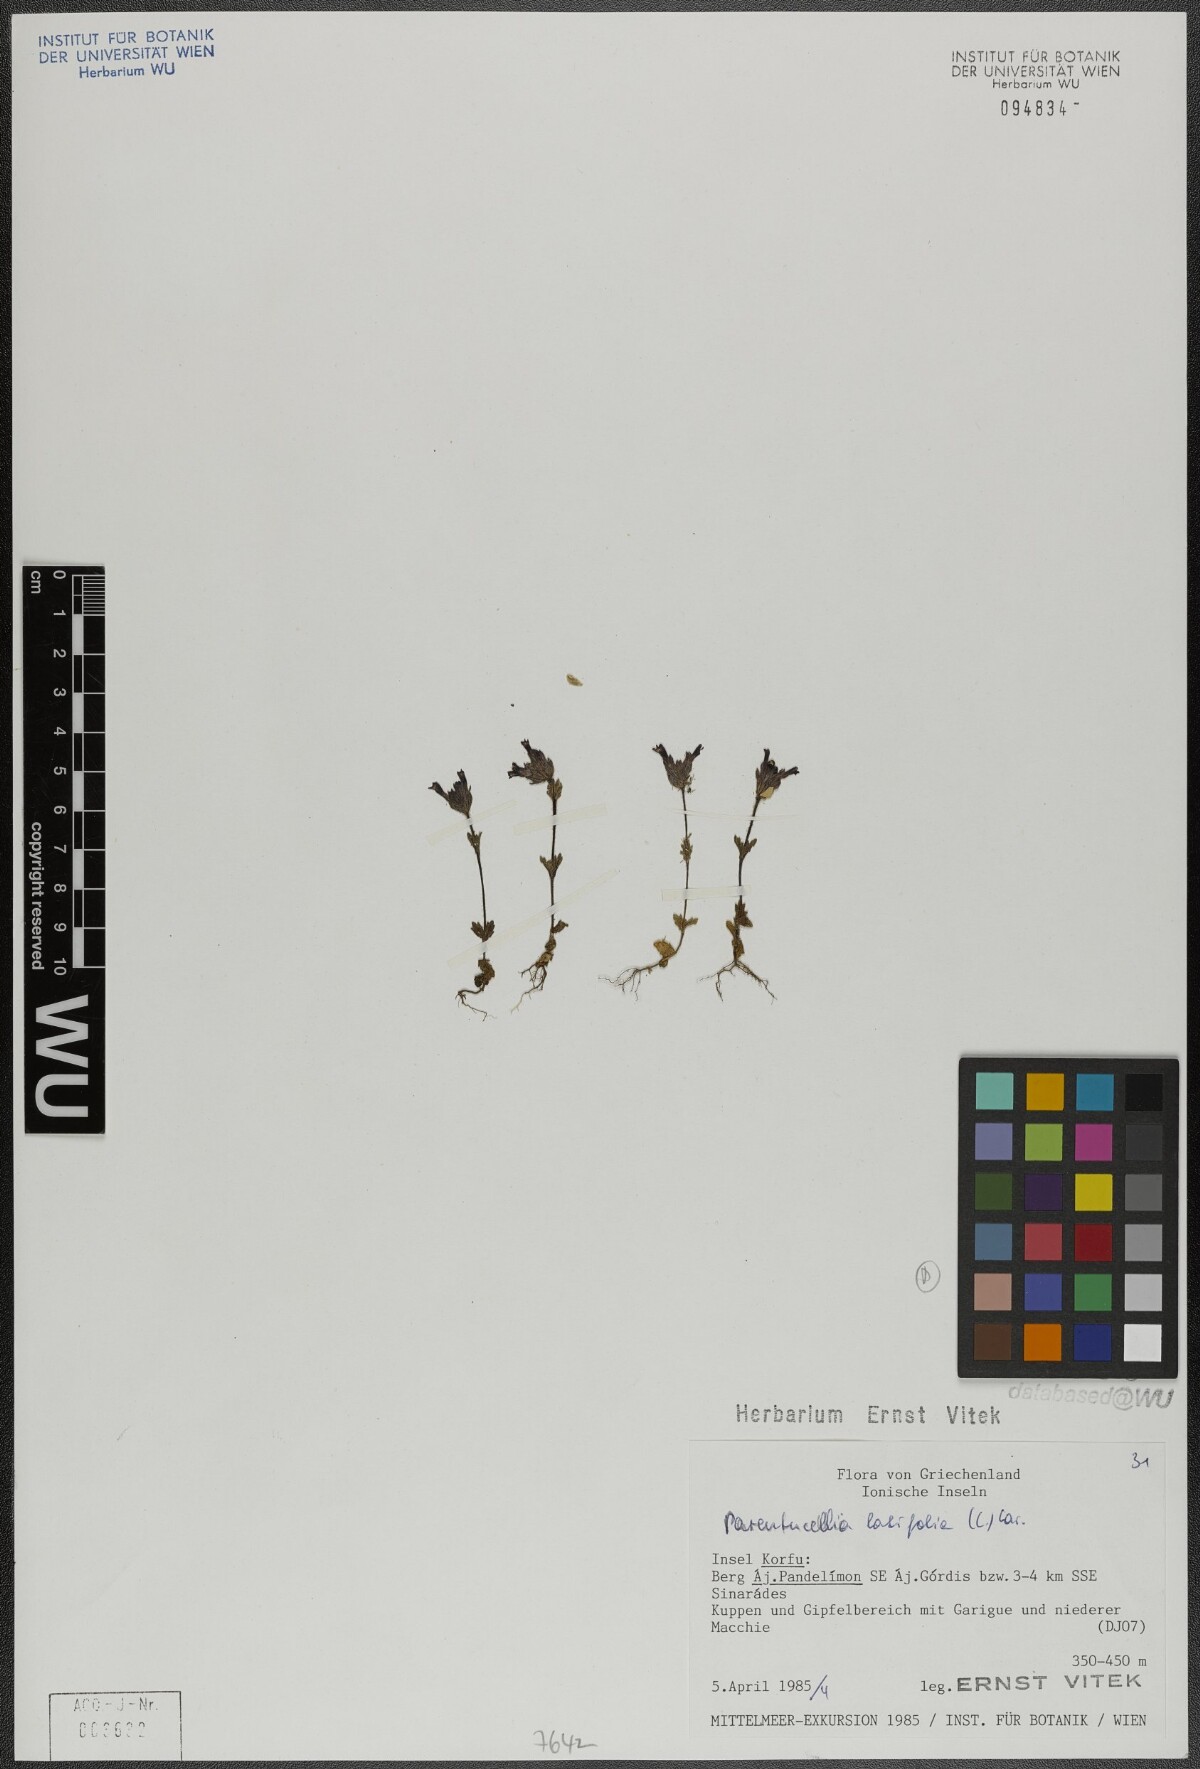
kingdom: Plantae
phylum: Tracheophyta
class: Magnoliopsida
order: Lamiales
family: Orobanchaceae
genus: Parentucellia
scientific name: Parentucellia latifolia
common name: Broadleaf glandweed
